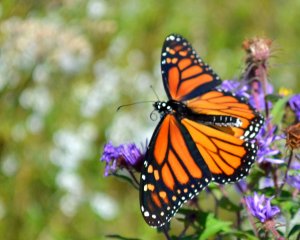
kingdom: Animalia
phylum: Arthropoda
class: Insecta
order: Lepidoptera
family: Nymphalidae
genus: Danaus
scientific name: Danaus plexippus
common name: Monarch
